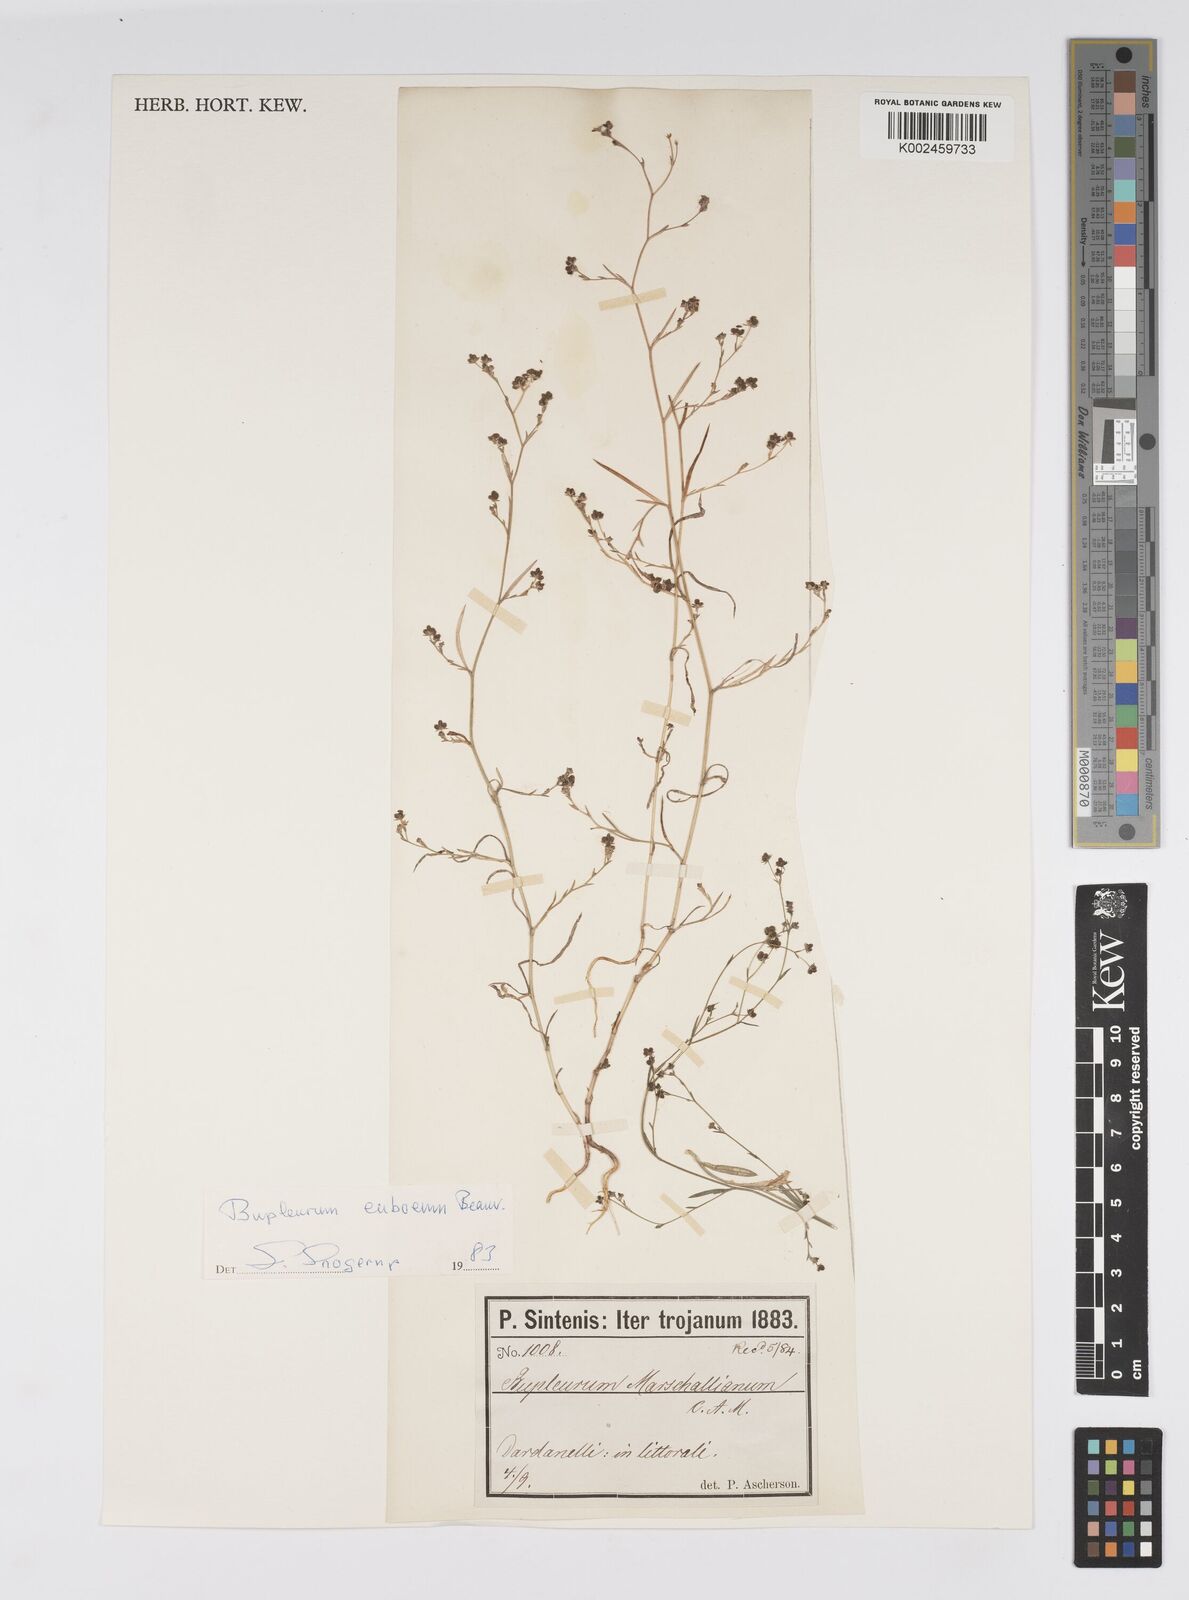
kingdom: Plantae
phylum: Tracheophyta
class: Magnoliopsida
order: Apiales
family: Apiaceae
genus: Bupleurum
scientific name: Bupleurum euboeum
